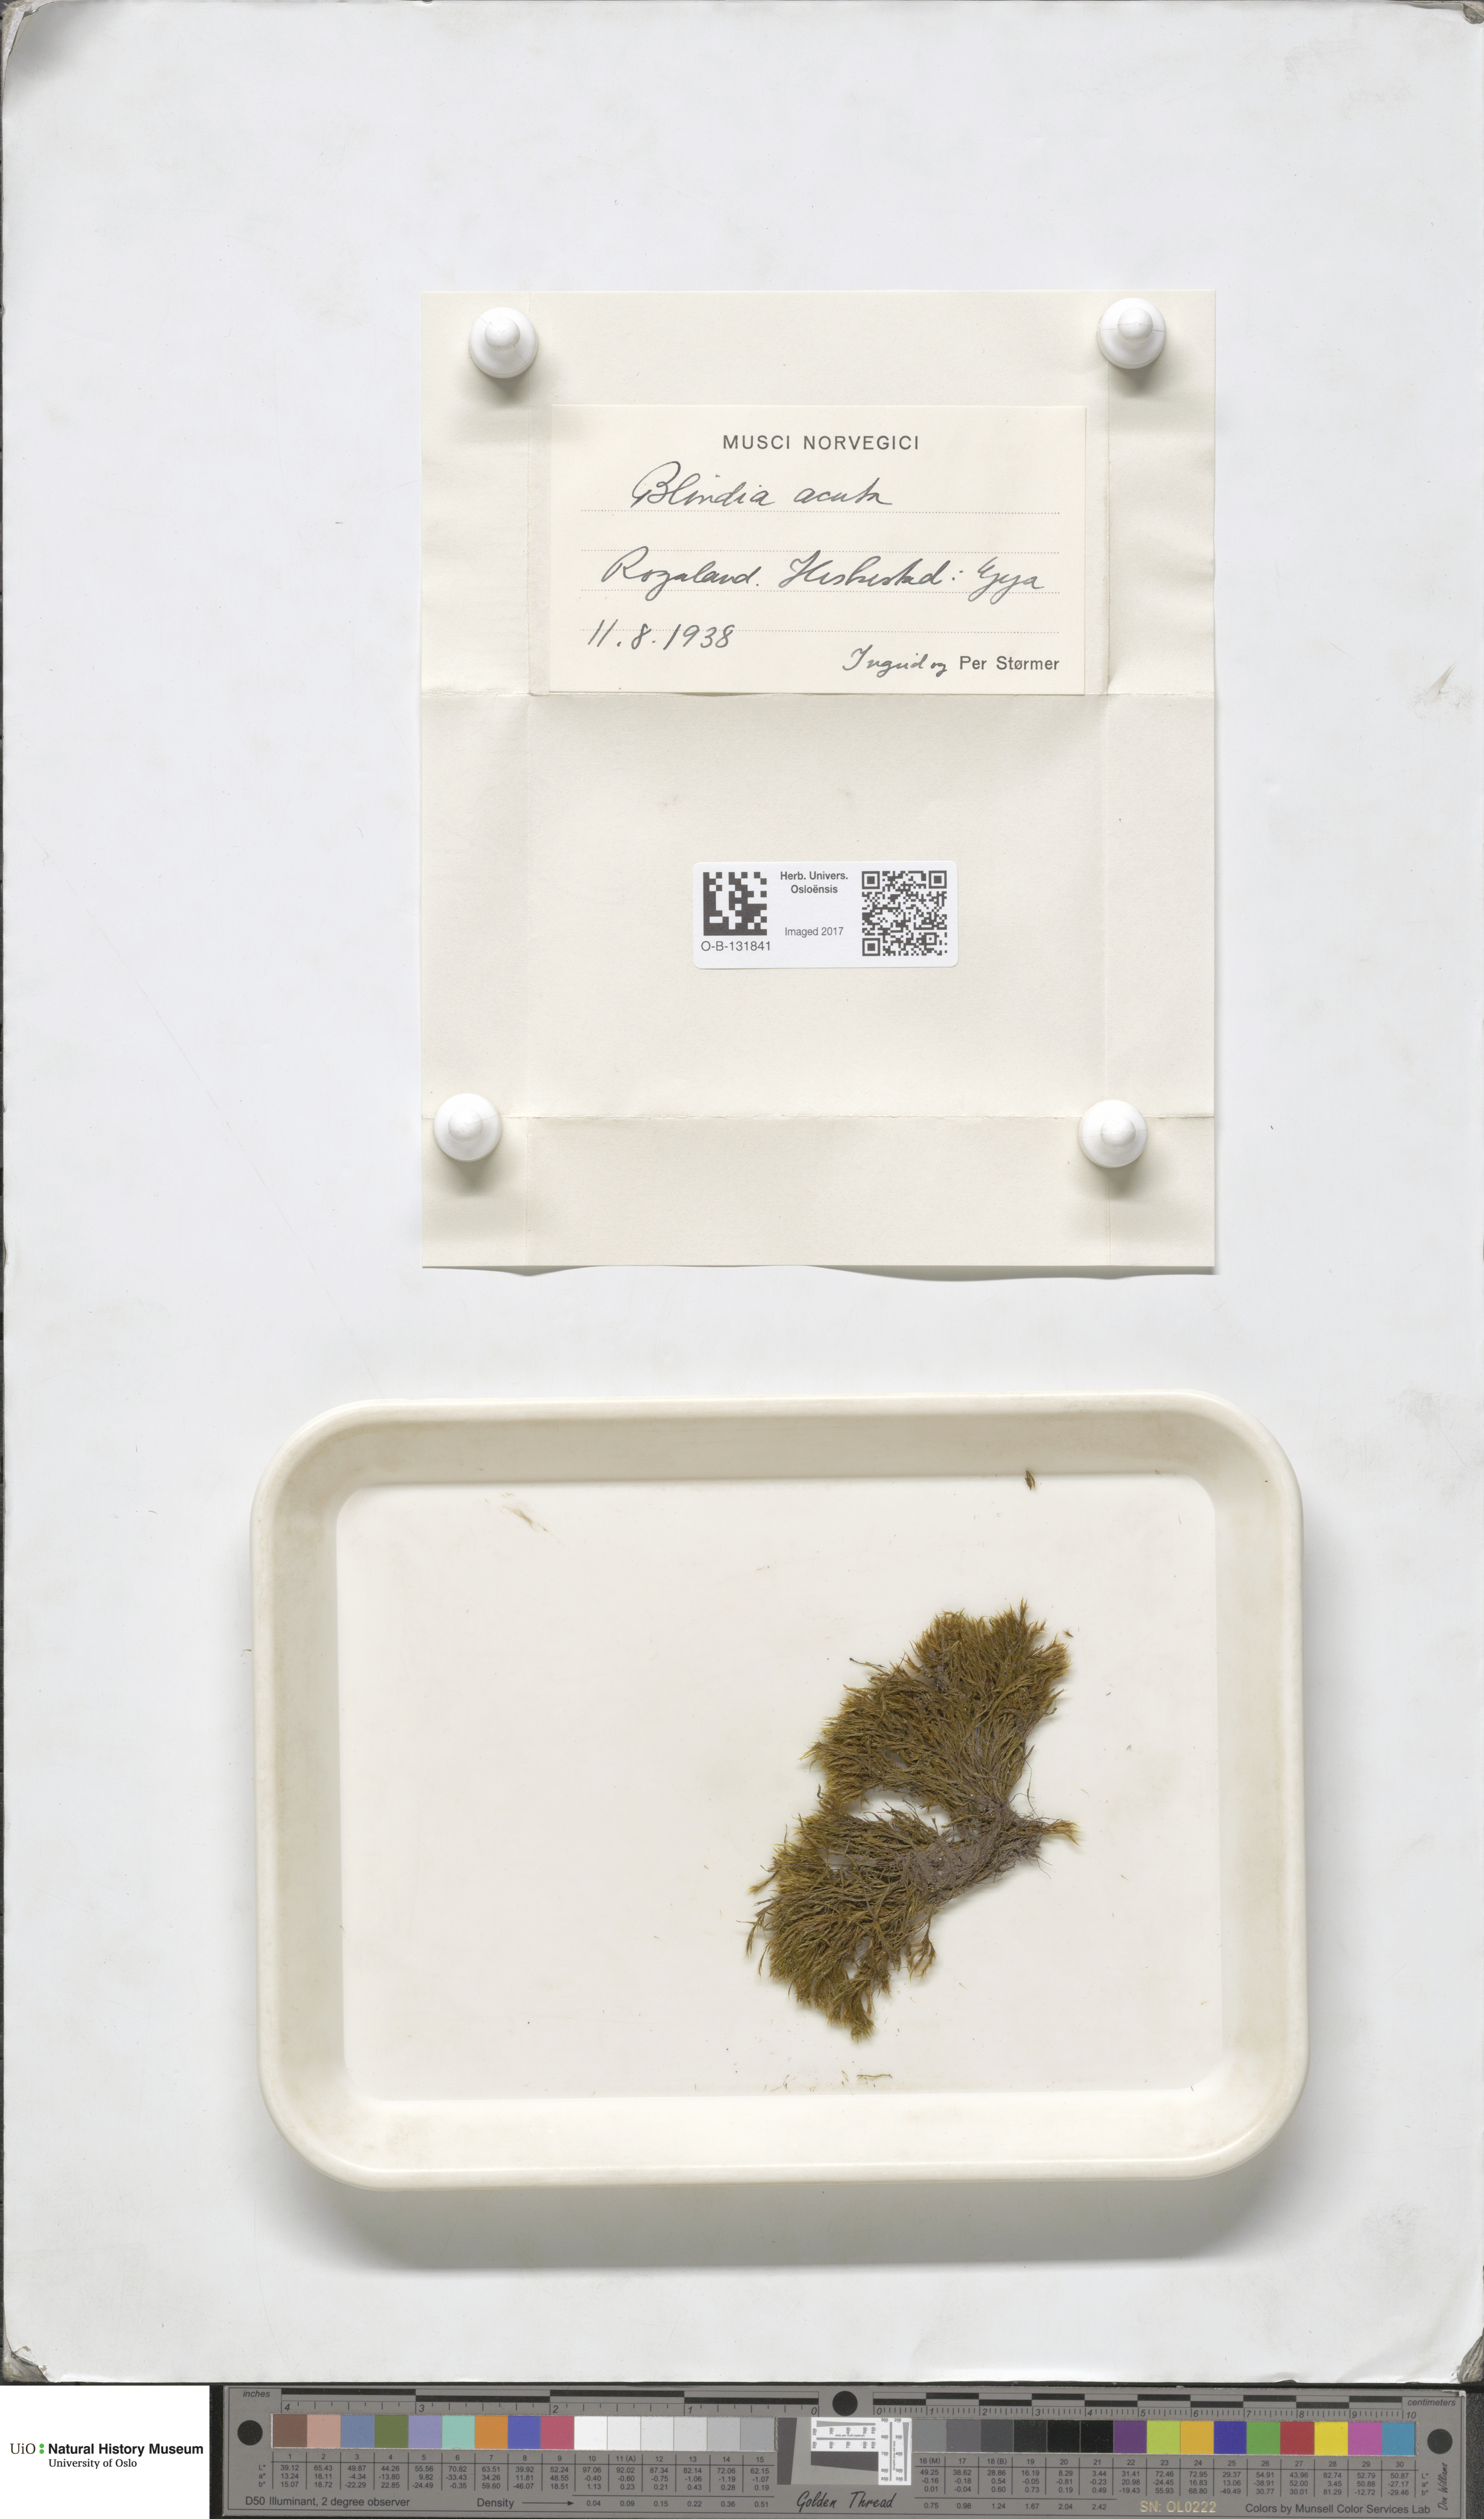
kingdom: Plantae
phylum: Bryophyta
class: Bryopsida
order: Grimmiales
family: Seligeriaceae
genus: Blindia
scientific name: Blindia acuta
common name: Sharp-leaved blind's moss
